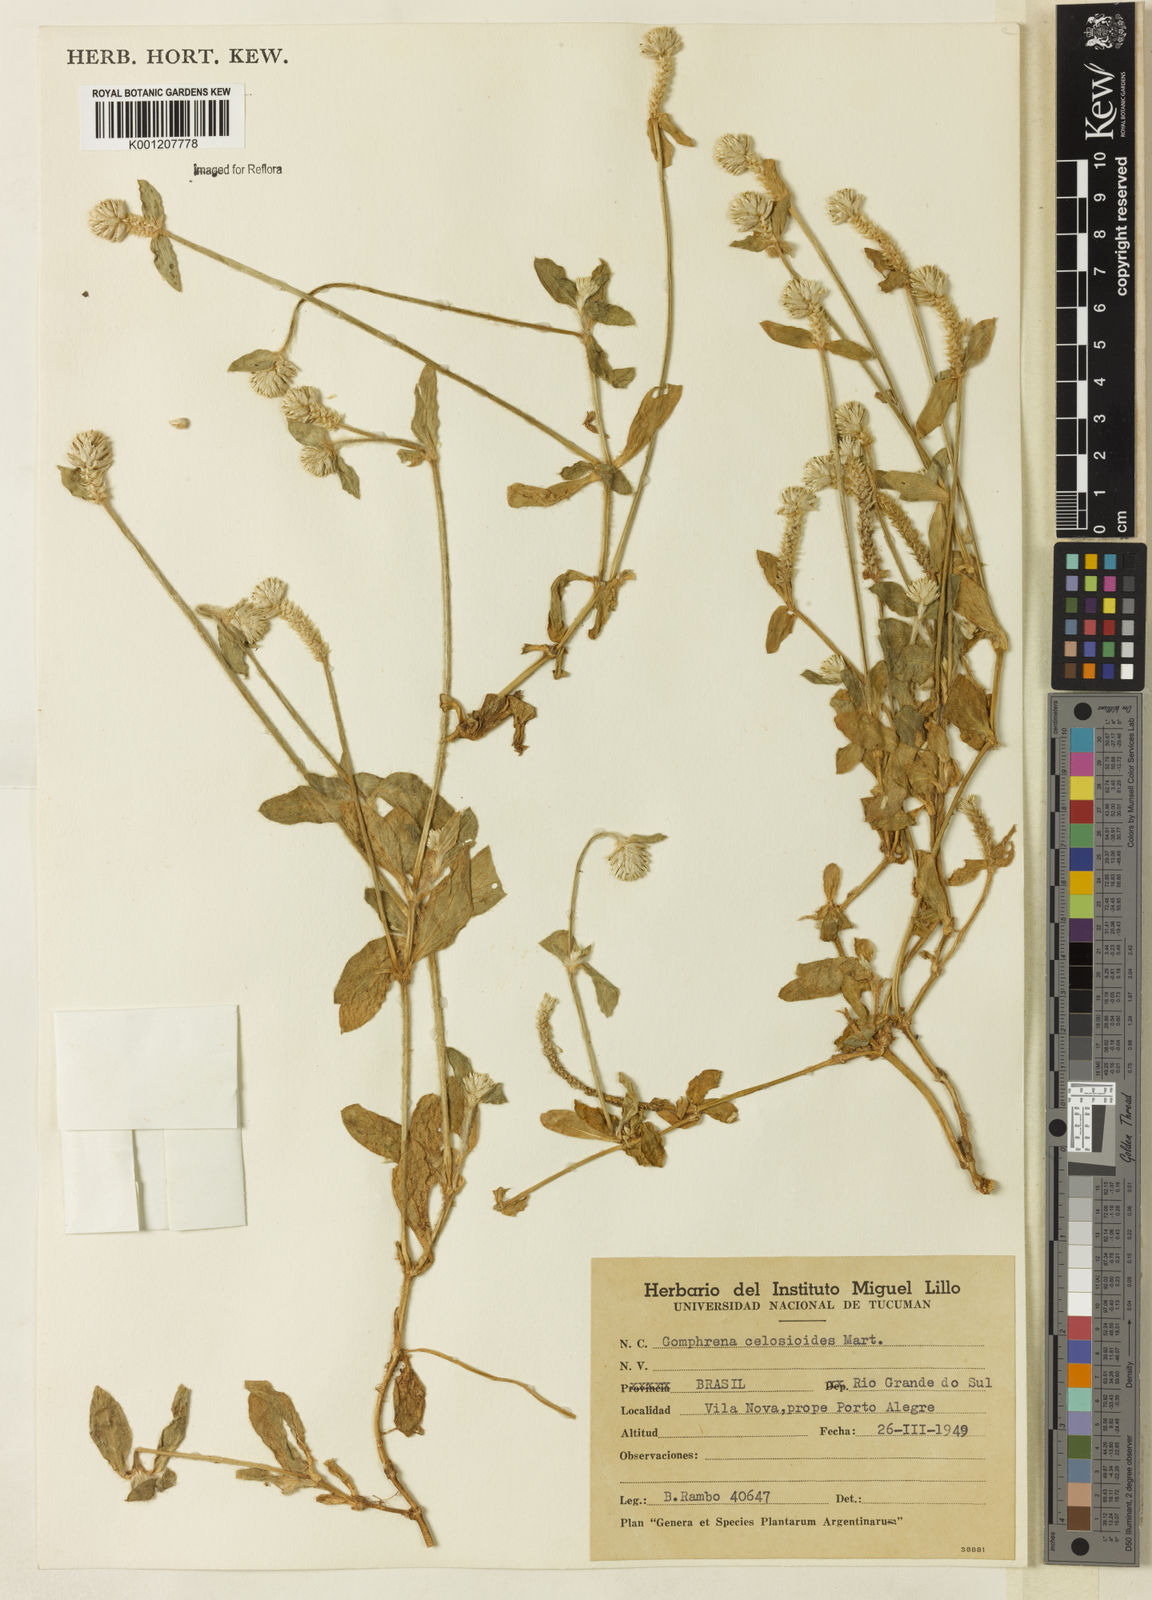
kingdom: Plantae
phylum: Tracheophyta
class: Magnoliopsida
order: Caryophyllales
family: Amaranthaceae
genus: Gomphrena
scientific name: Gomphrena celosioides
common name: Gomphrena-weed
